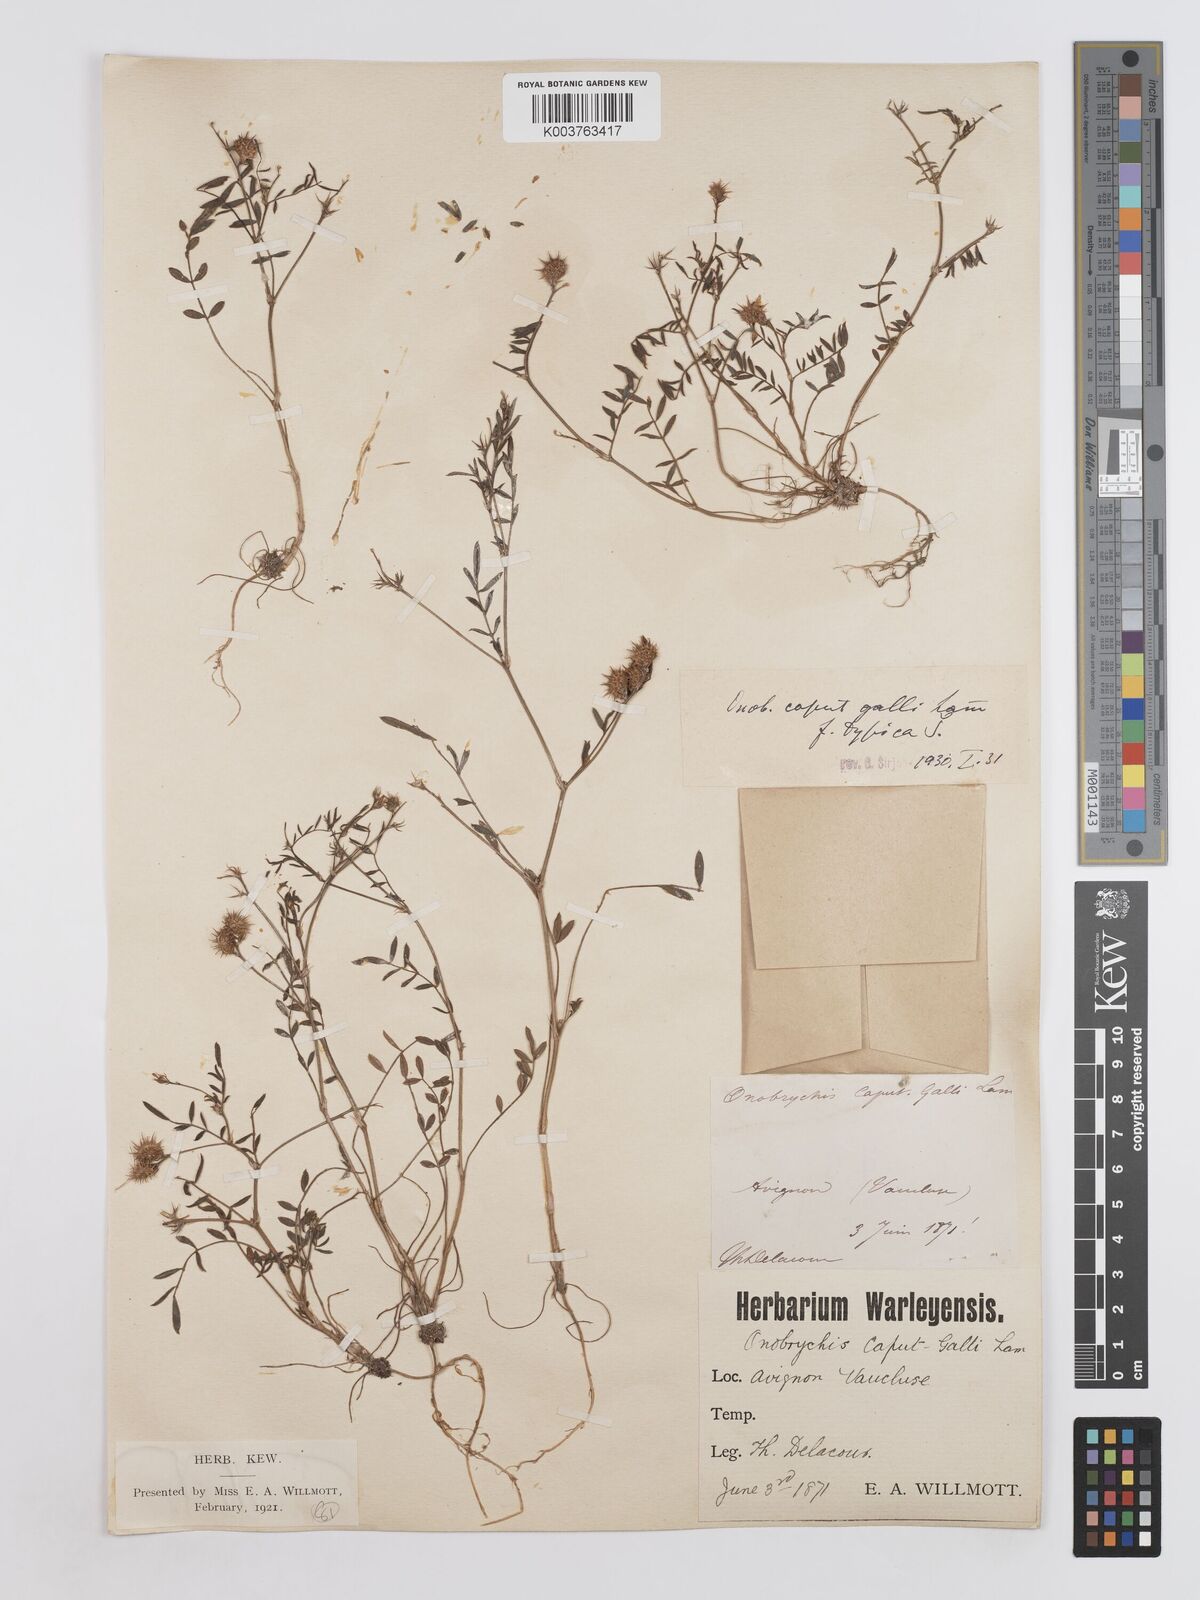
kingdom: Plantae
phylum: Tracheophyta
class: Magnoliopsida
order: Fabales
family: Fabaceae
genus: Onobrychis
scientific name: Onobrychis caput-galli
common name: Cockscomb sainfoin
